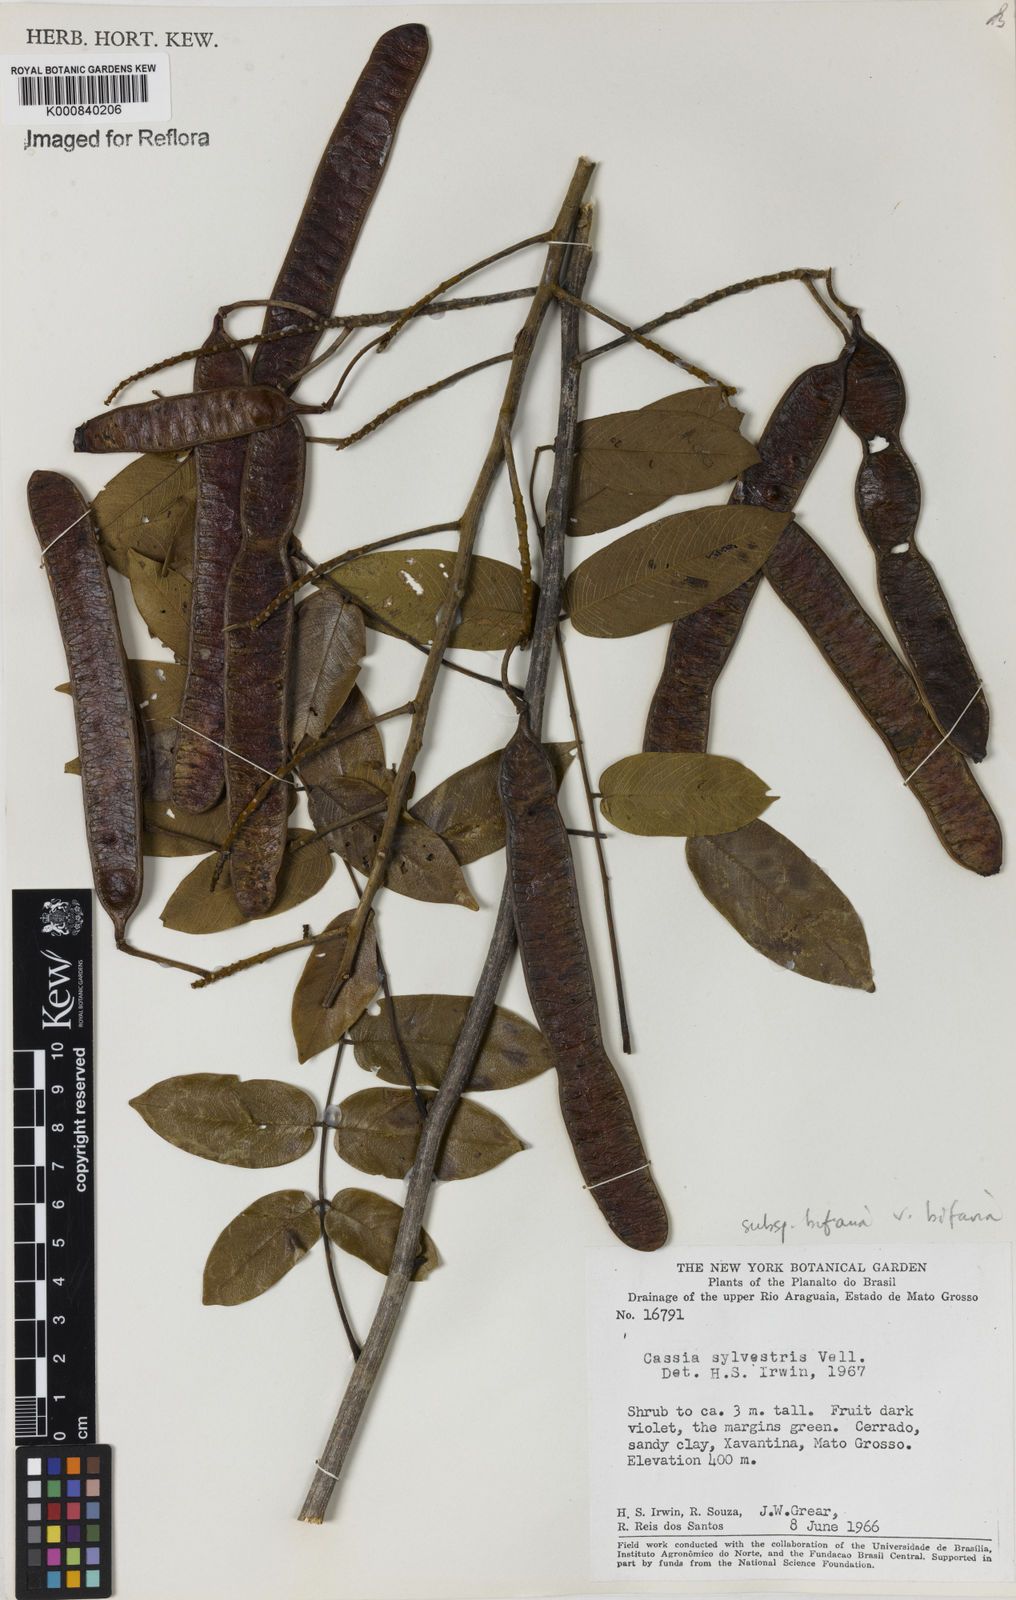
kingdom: Plantae
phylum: Tracheophyta
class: Magnoliopsida
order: Fabales
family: Fabaceae
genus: Senna
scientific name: Senna silvestris
